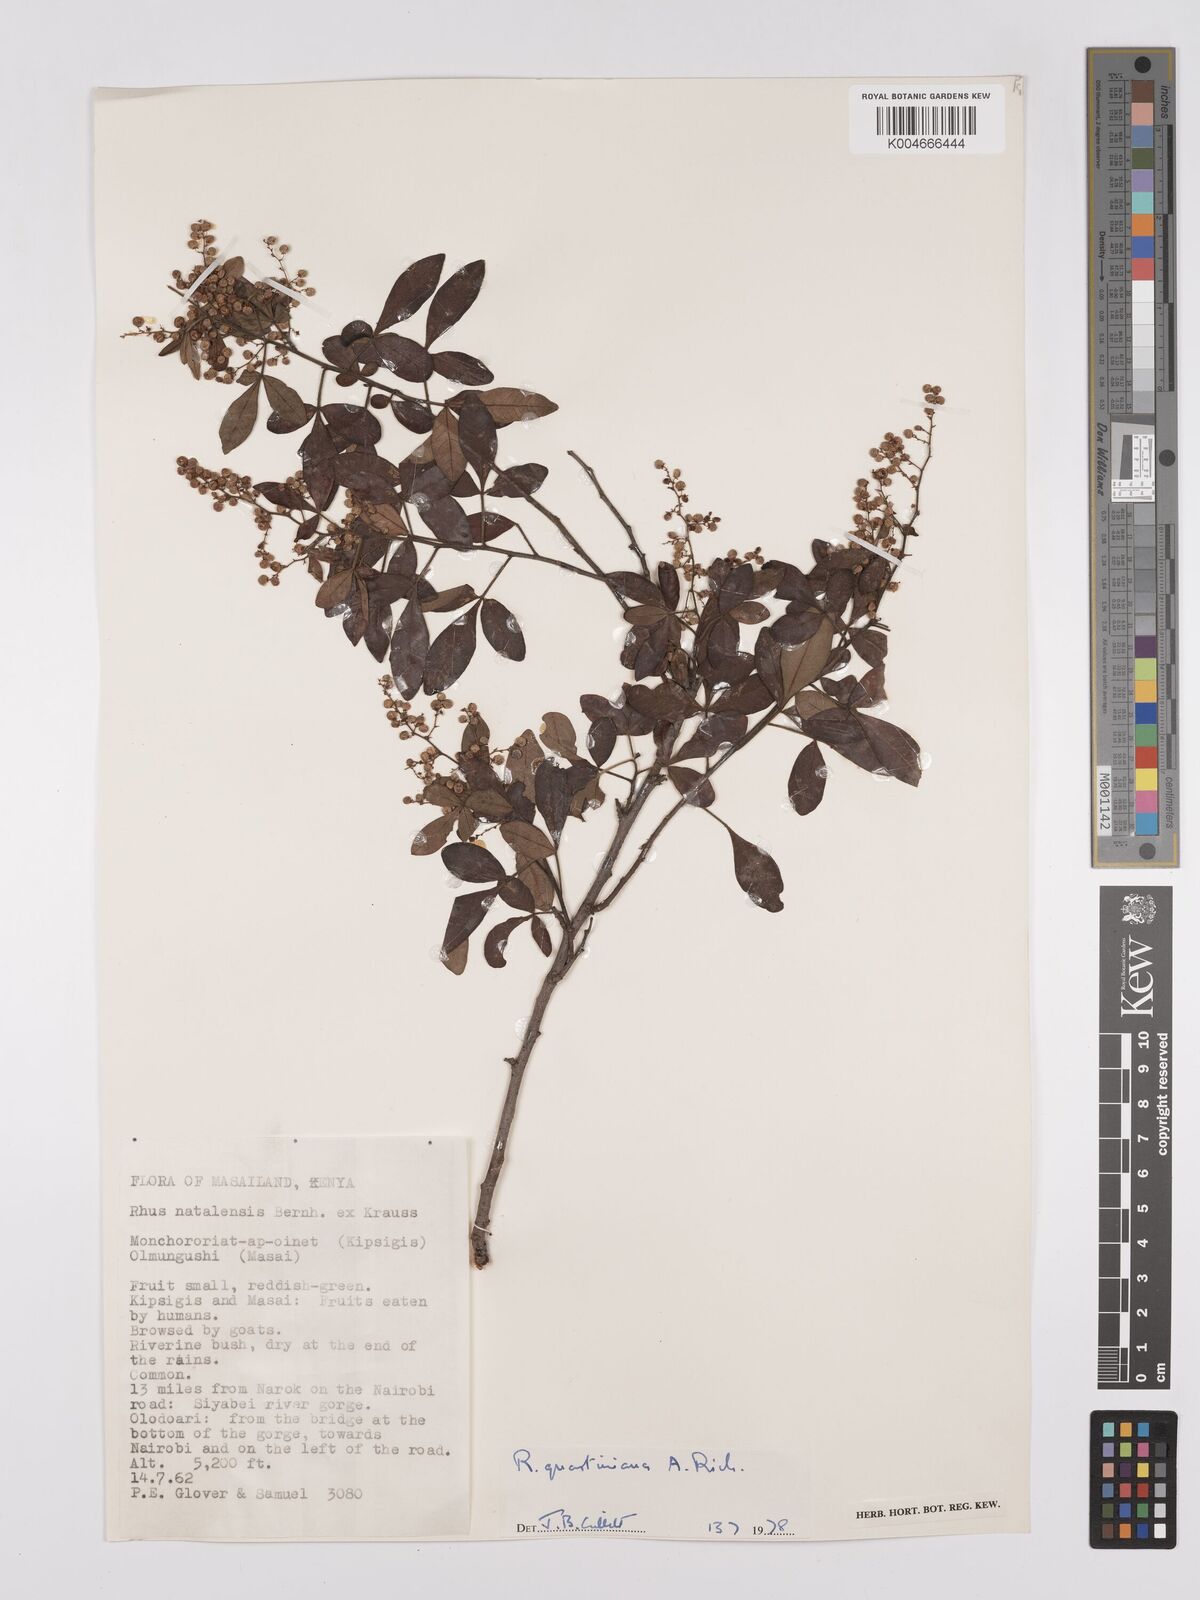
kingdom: Plantae
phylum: Tracheophyta
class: Magnoliopsida
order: Sapindales
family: Anacardiaceae
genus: Searsia
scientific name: Searsia quartiniana
